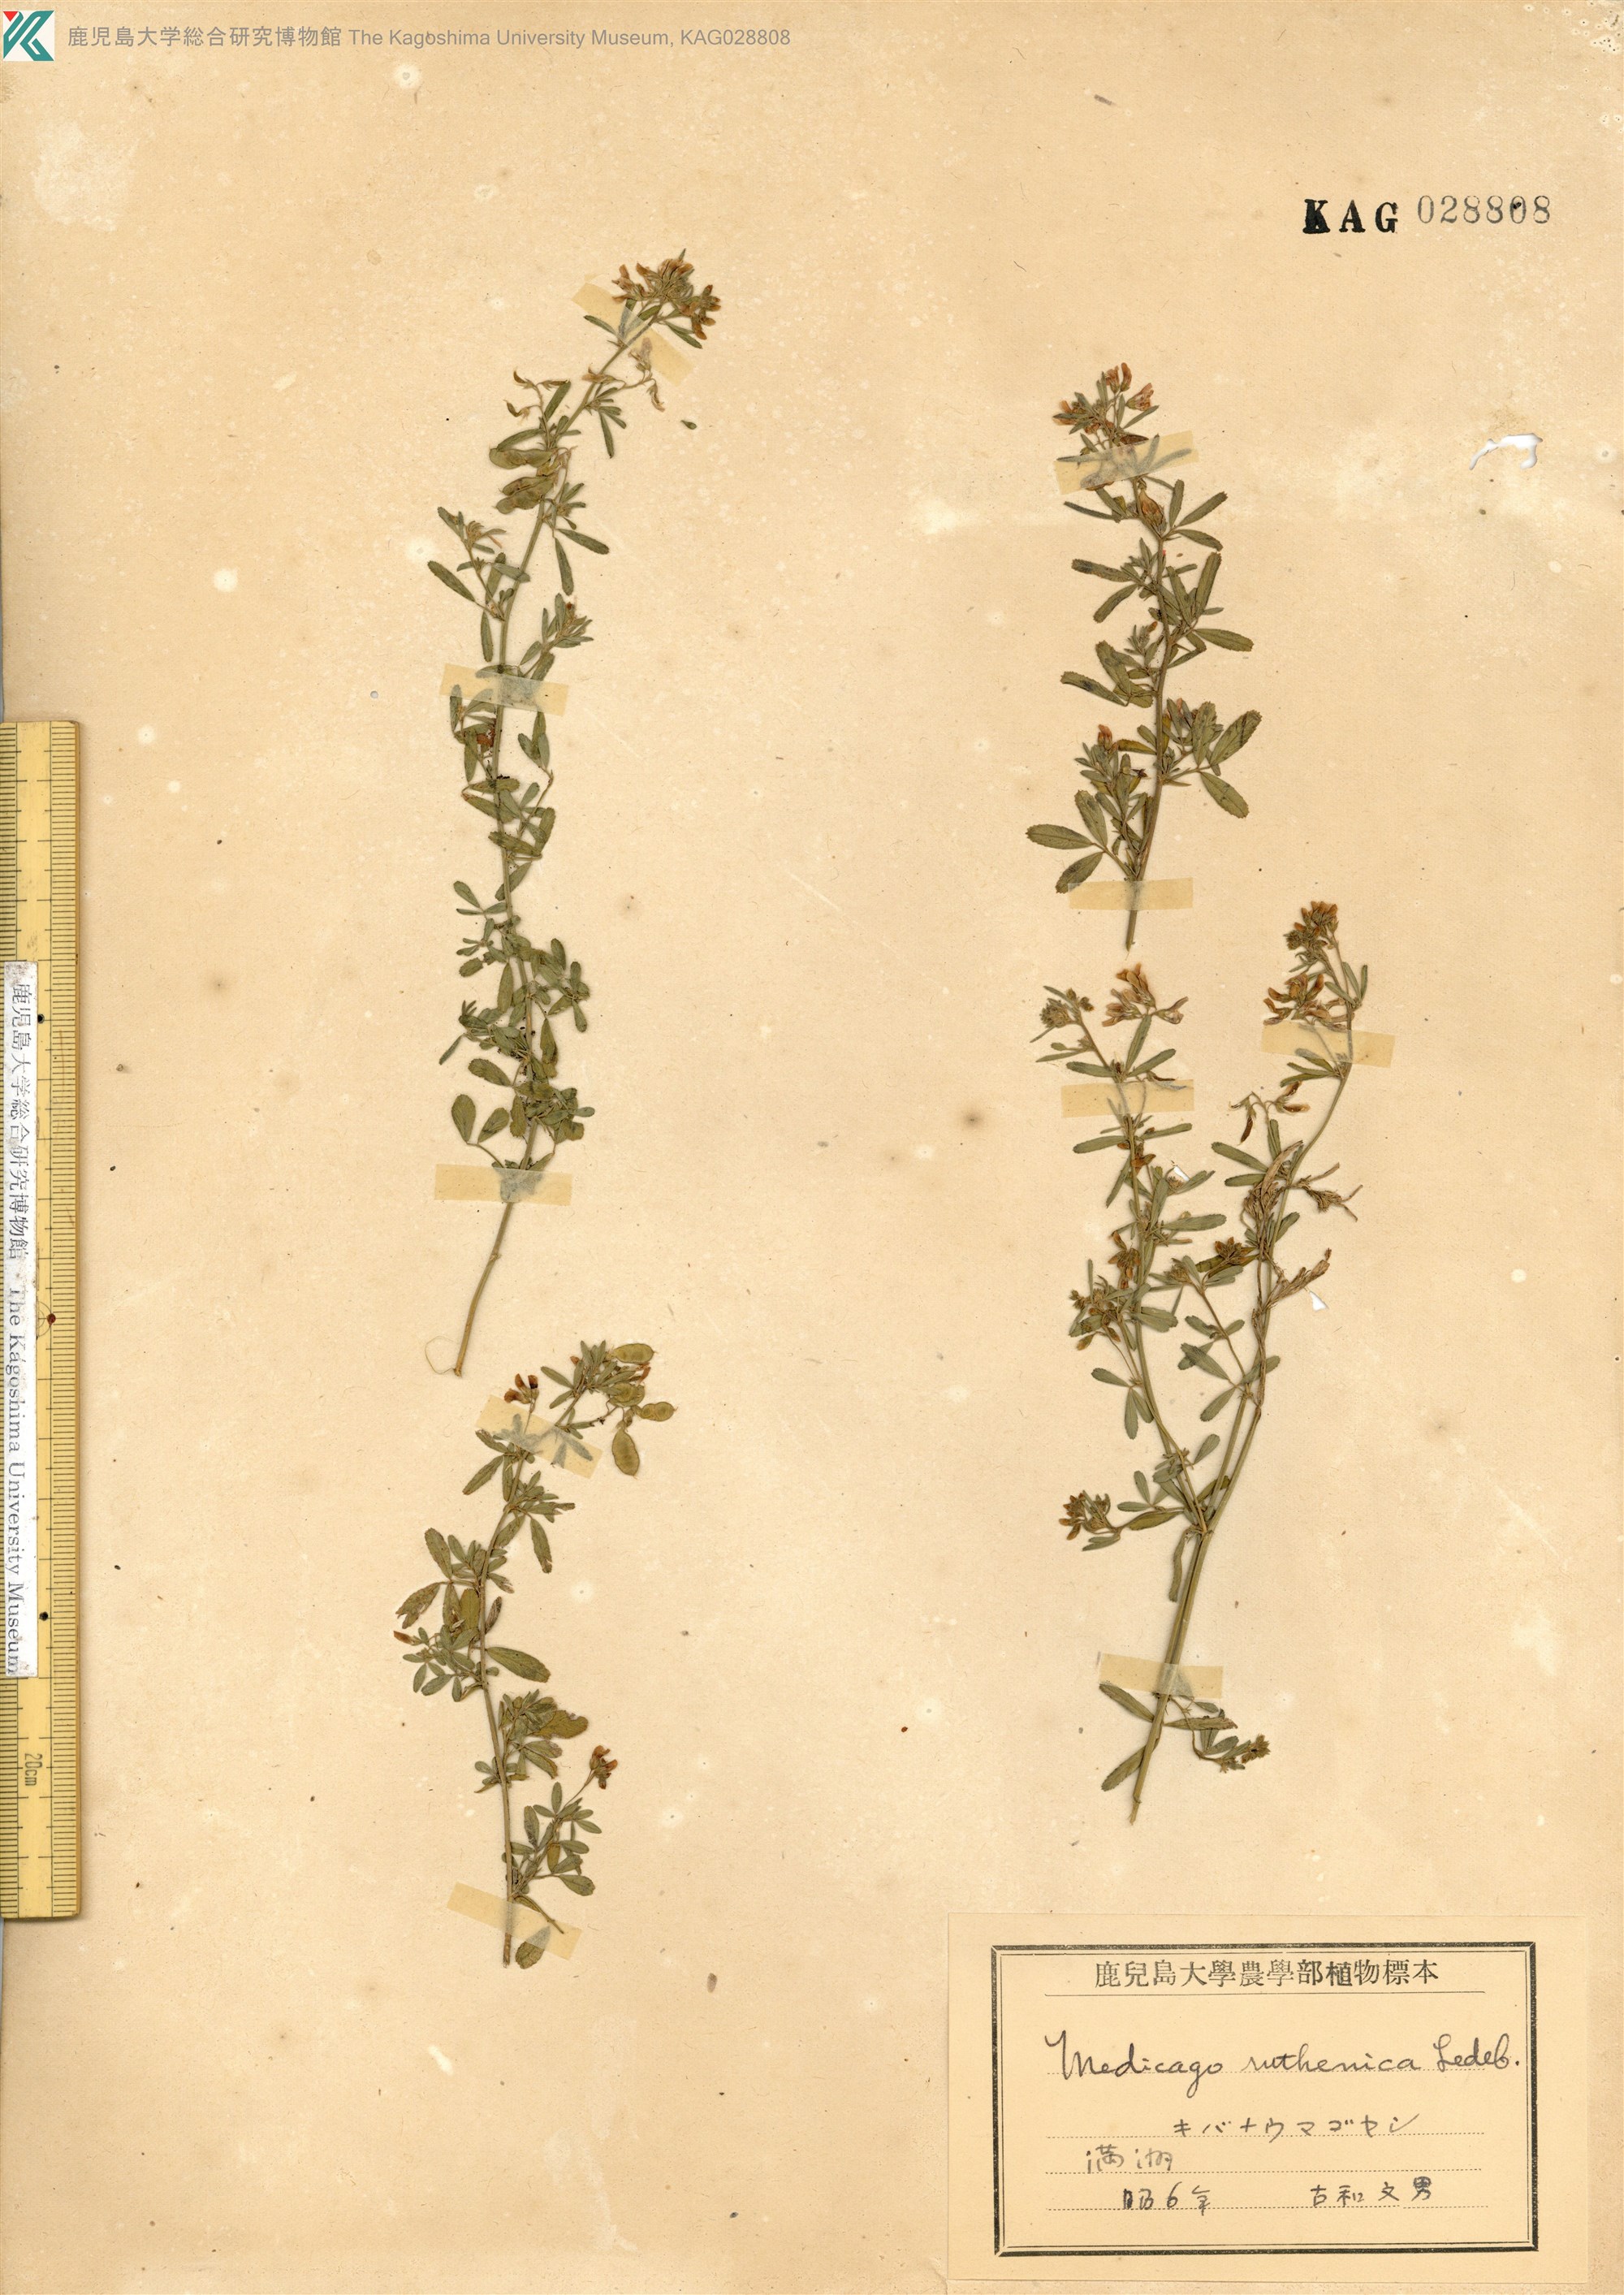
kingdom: Plantae
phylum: Tracheophyta
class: Magnoliopsida
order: Fabales
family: Fabaceae
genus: Medicago
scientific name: Medicago ruthenica
